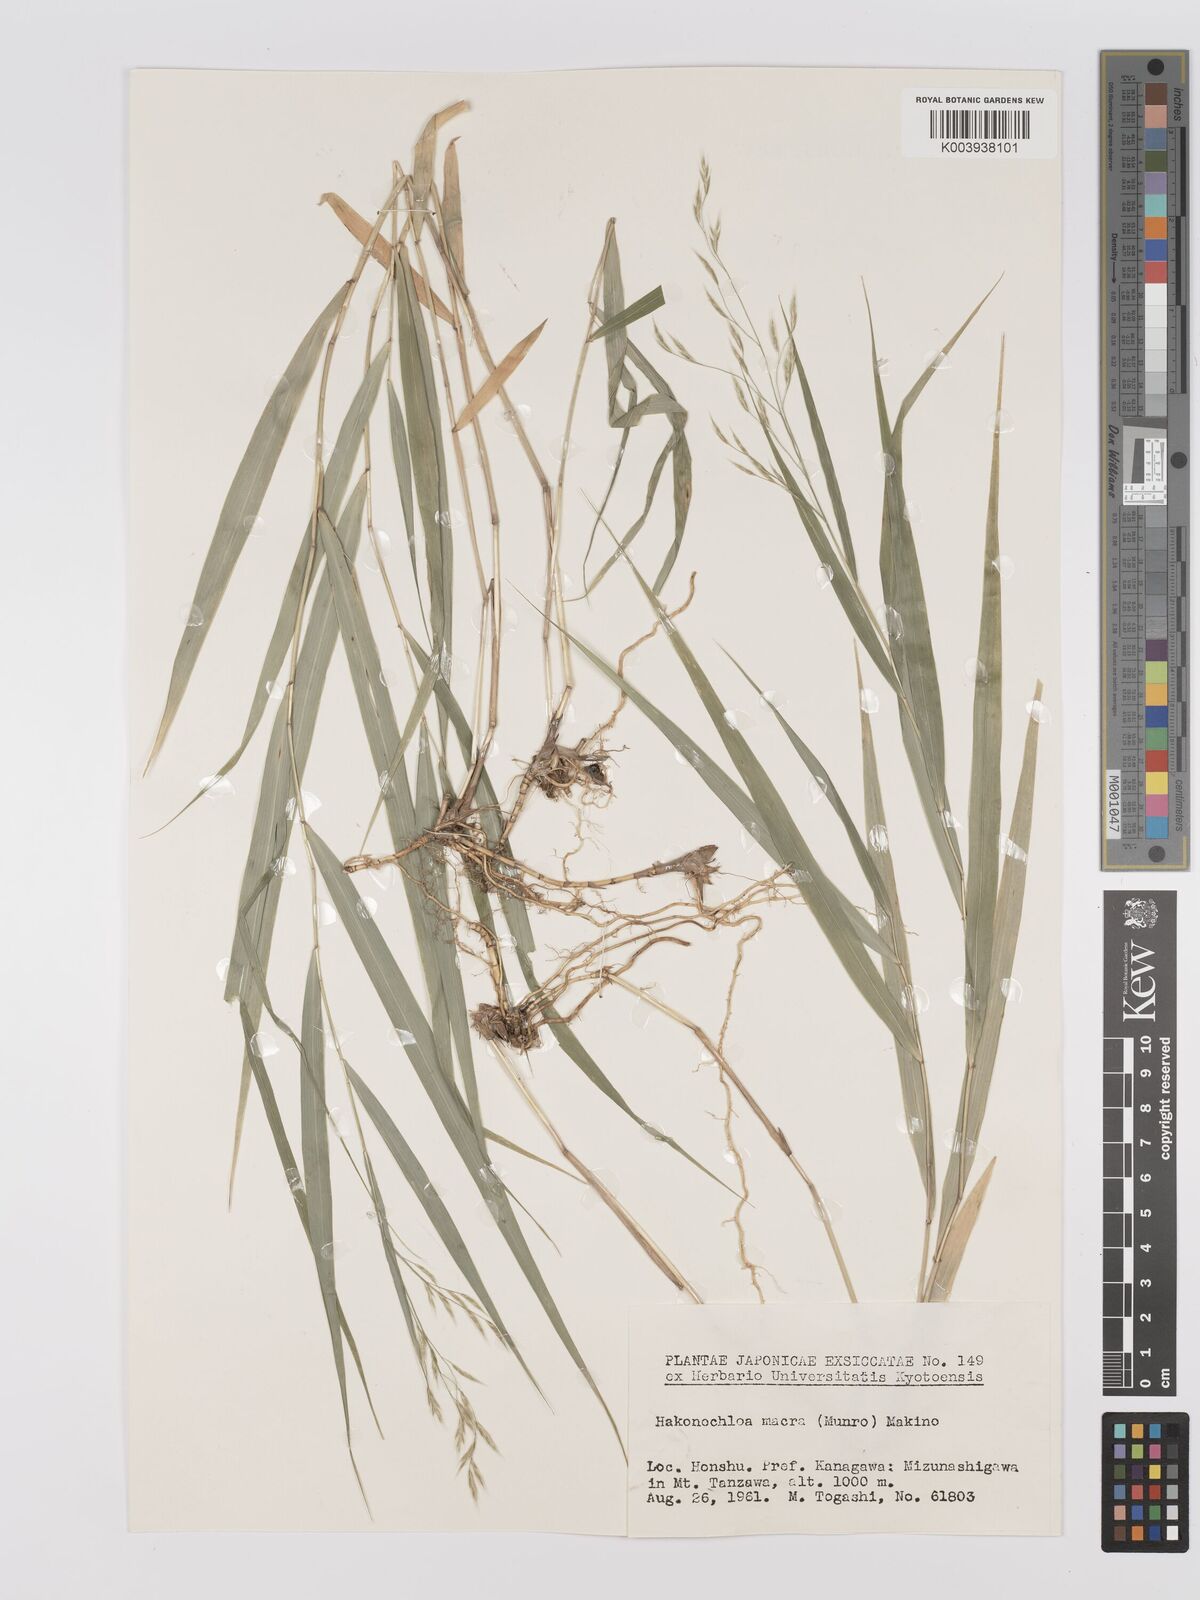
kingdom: Plantae
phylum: Tracheophyta
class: Liliopsida
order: Poales
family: Poaceae
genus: Hakonechloa
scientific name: Hakonechloa macra
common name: Hakone grass
